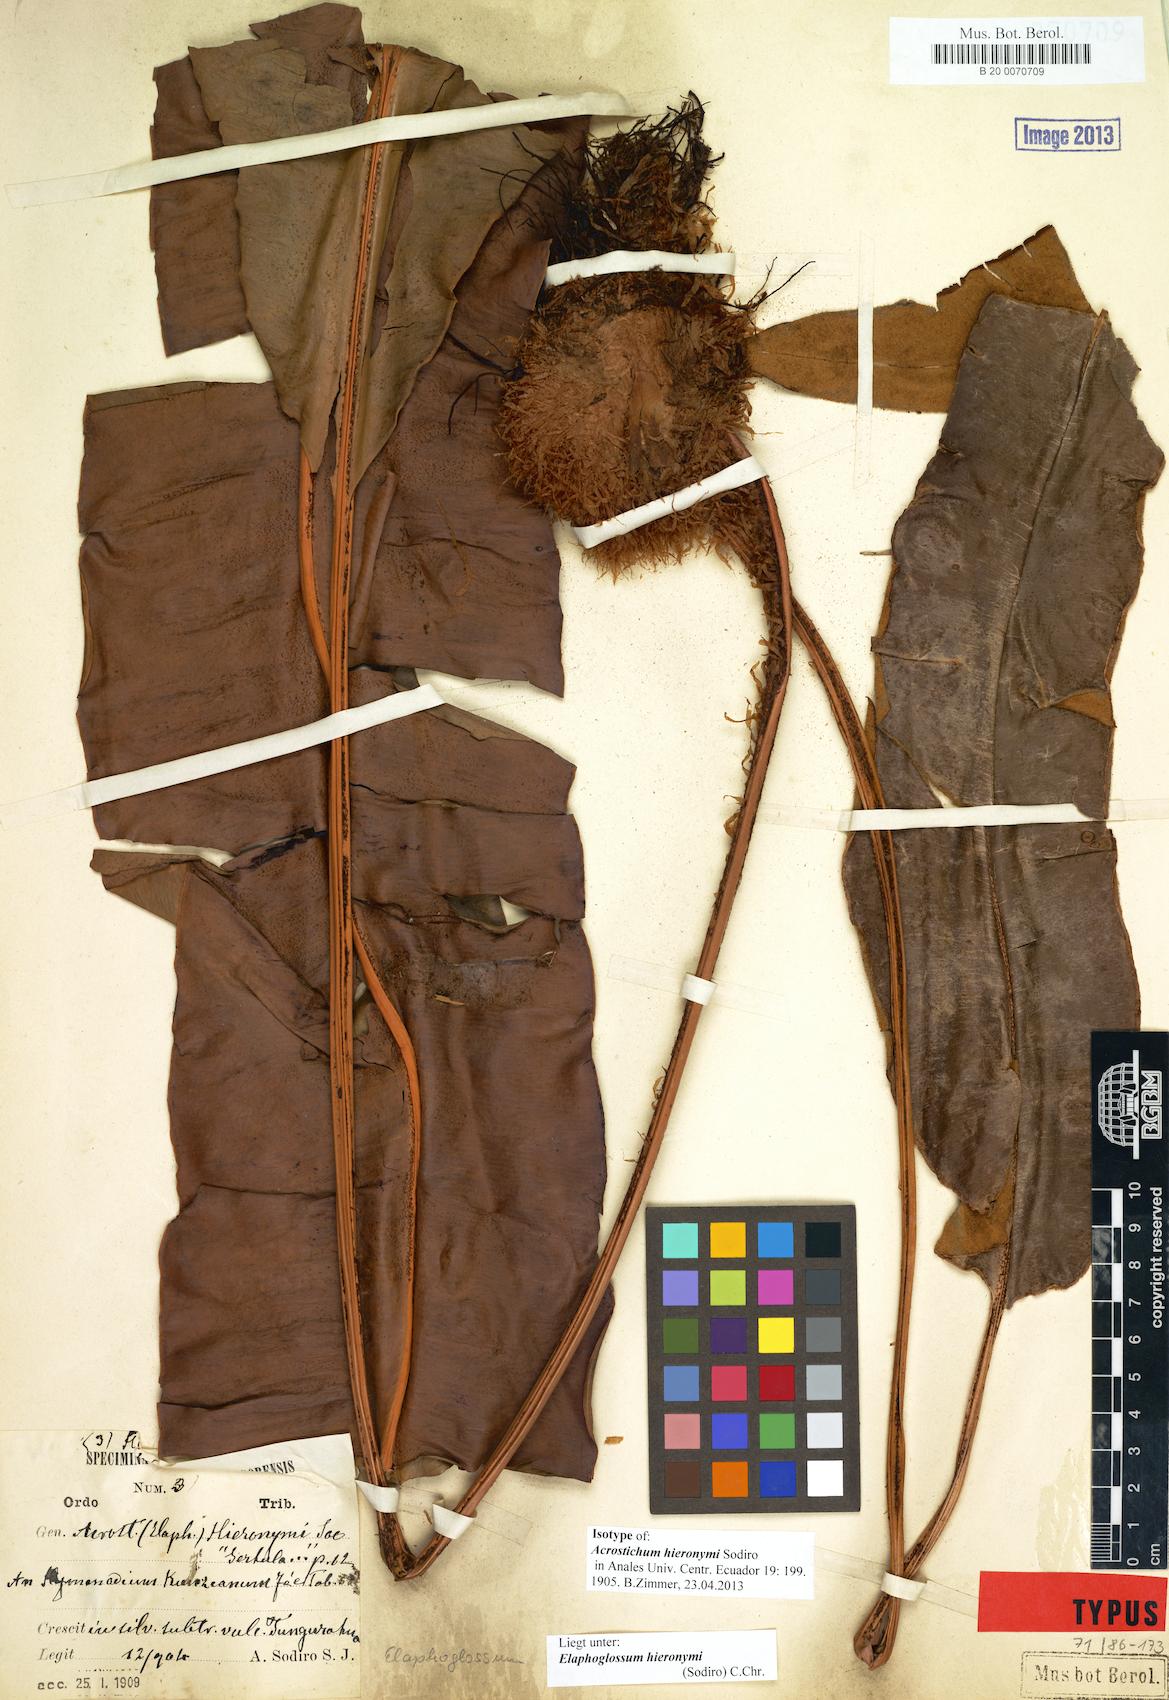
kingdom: Plantae
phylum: Tracheophyta
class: Polypodiopsida
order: Polypodiales
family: Dryopteridaceae
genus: Elaphoglossum
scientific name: Elaphoglossum hieronymi
